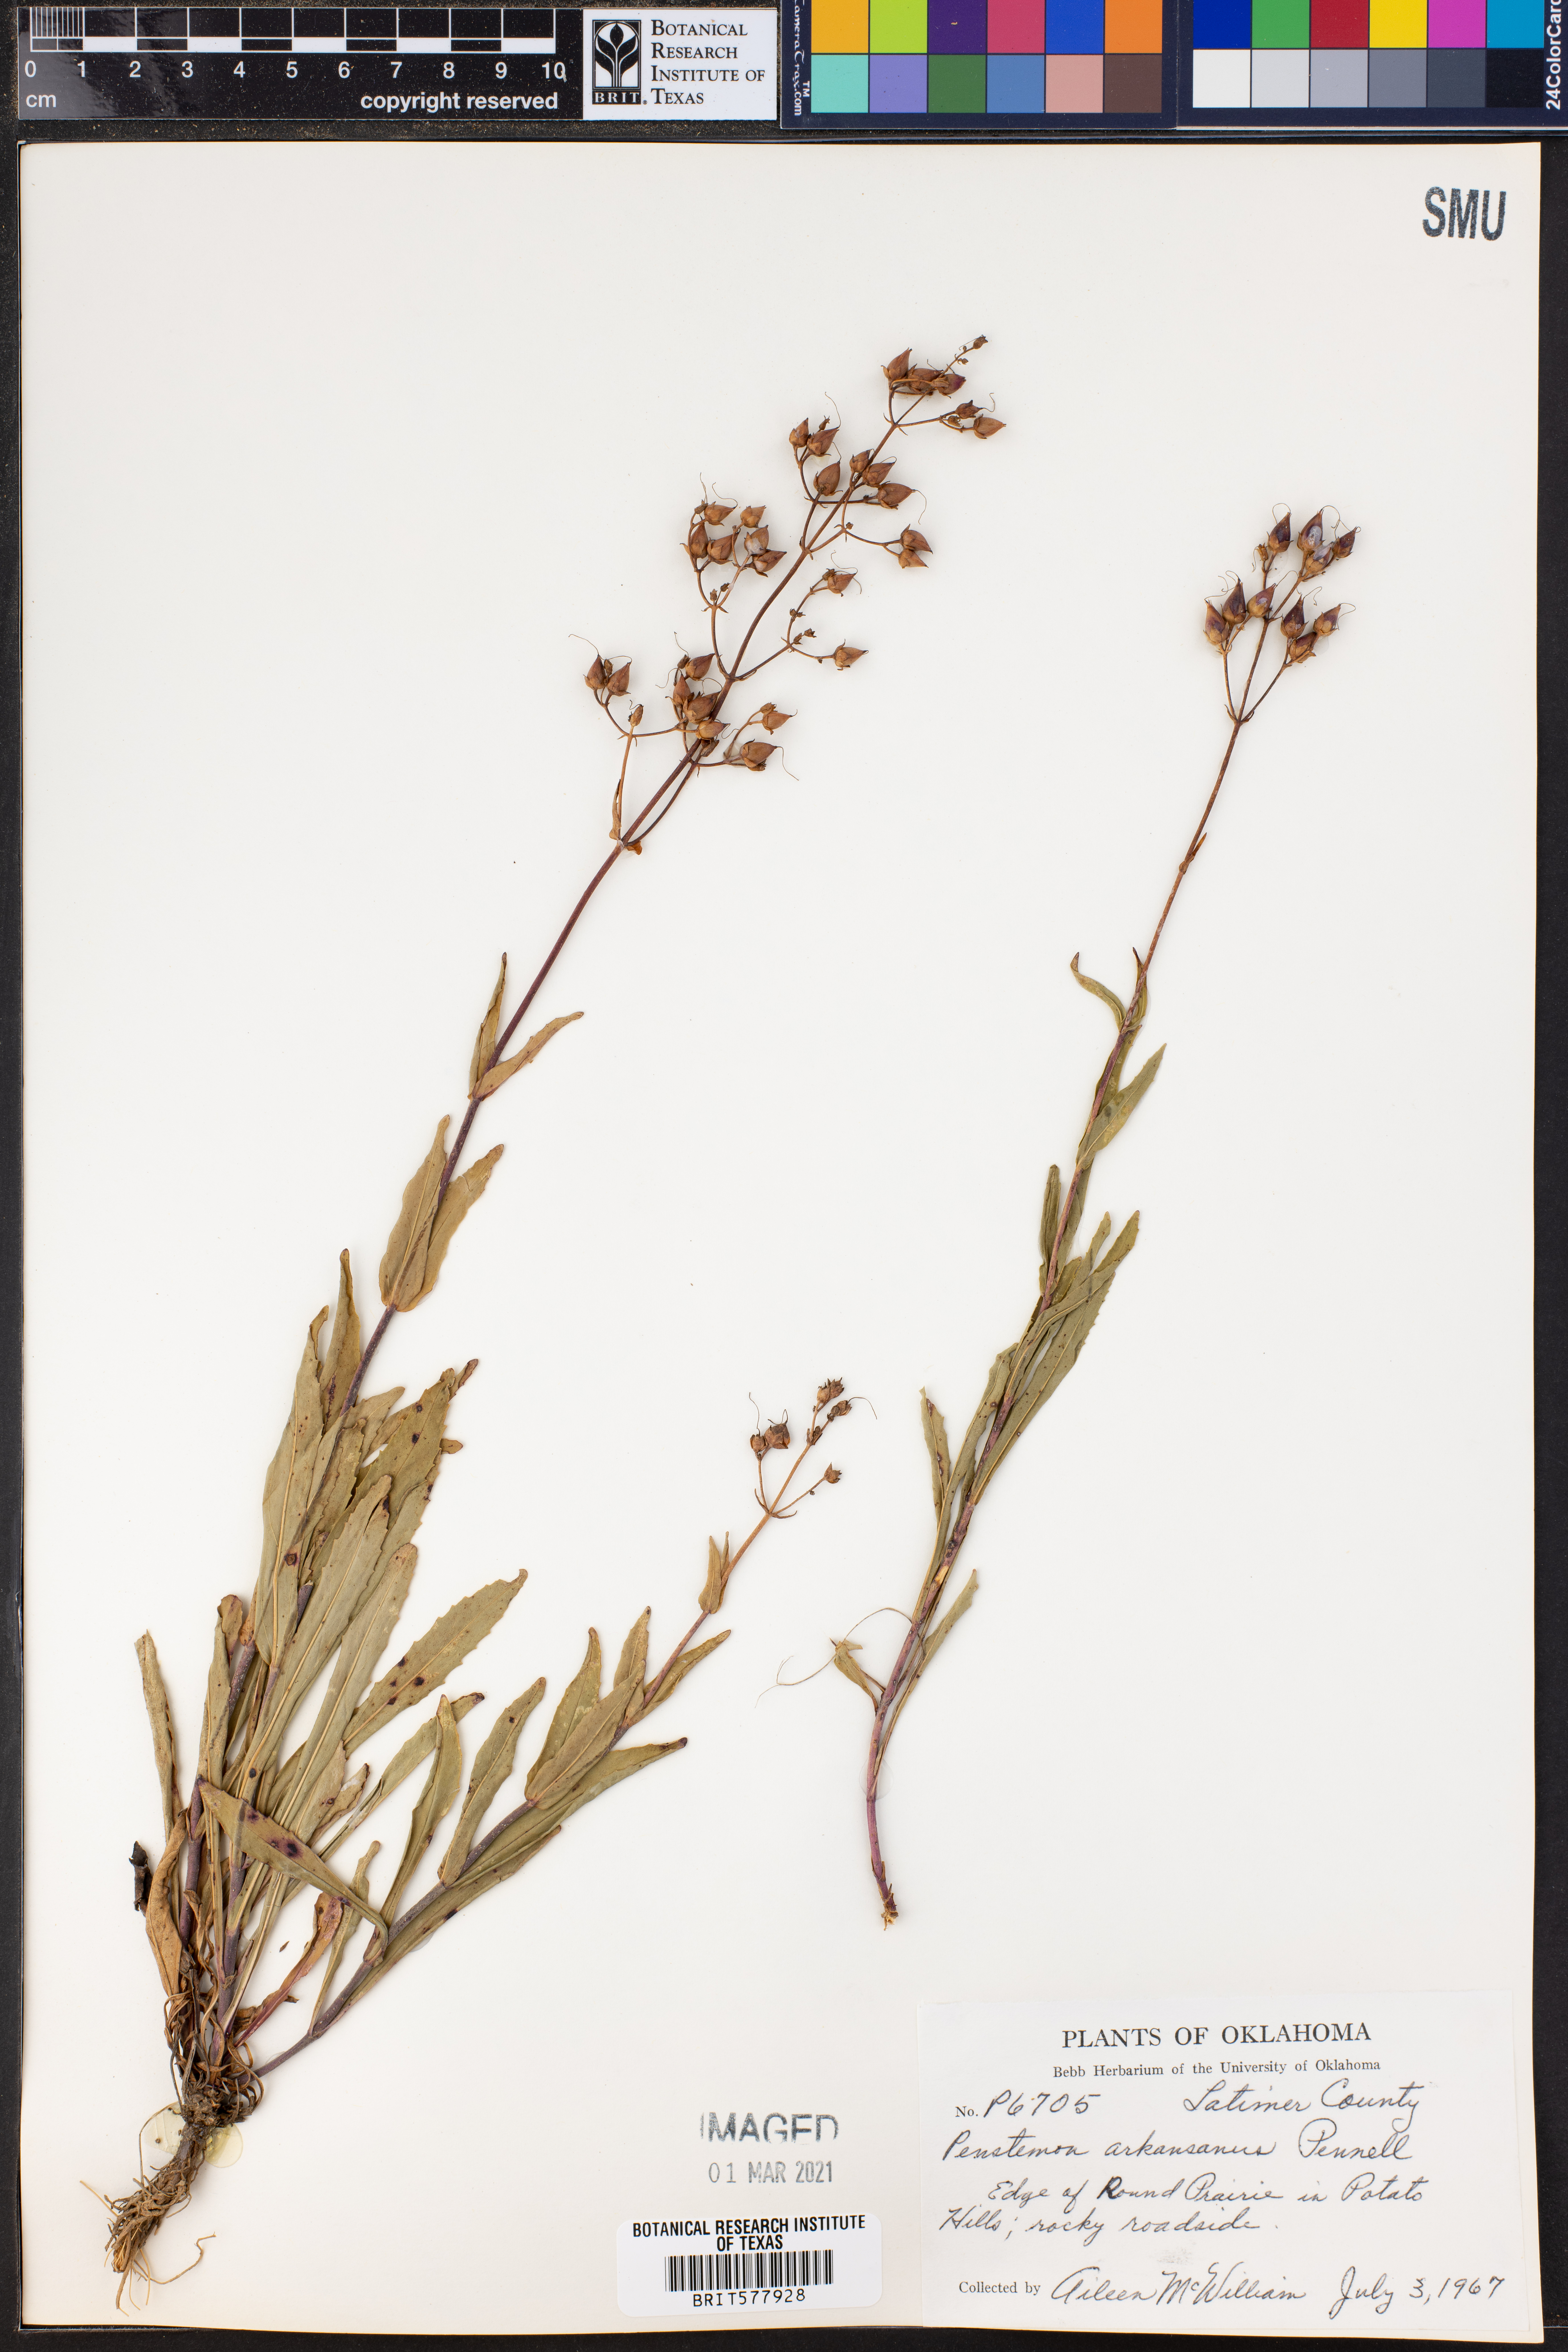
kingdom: Plantae
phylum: Tracheophyta
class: Magnoliopsida
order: Lamiales
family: Plantaginaceae
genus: Penstemon
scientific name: Penstemon arkansanus
